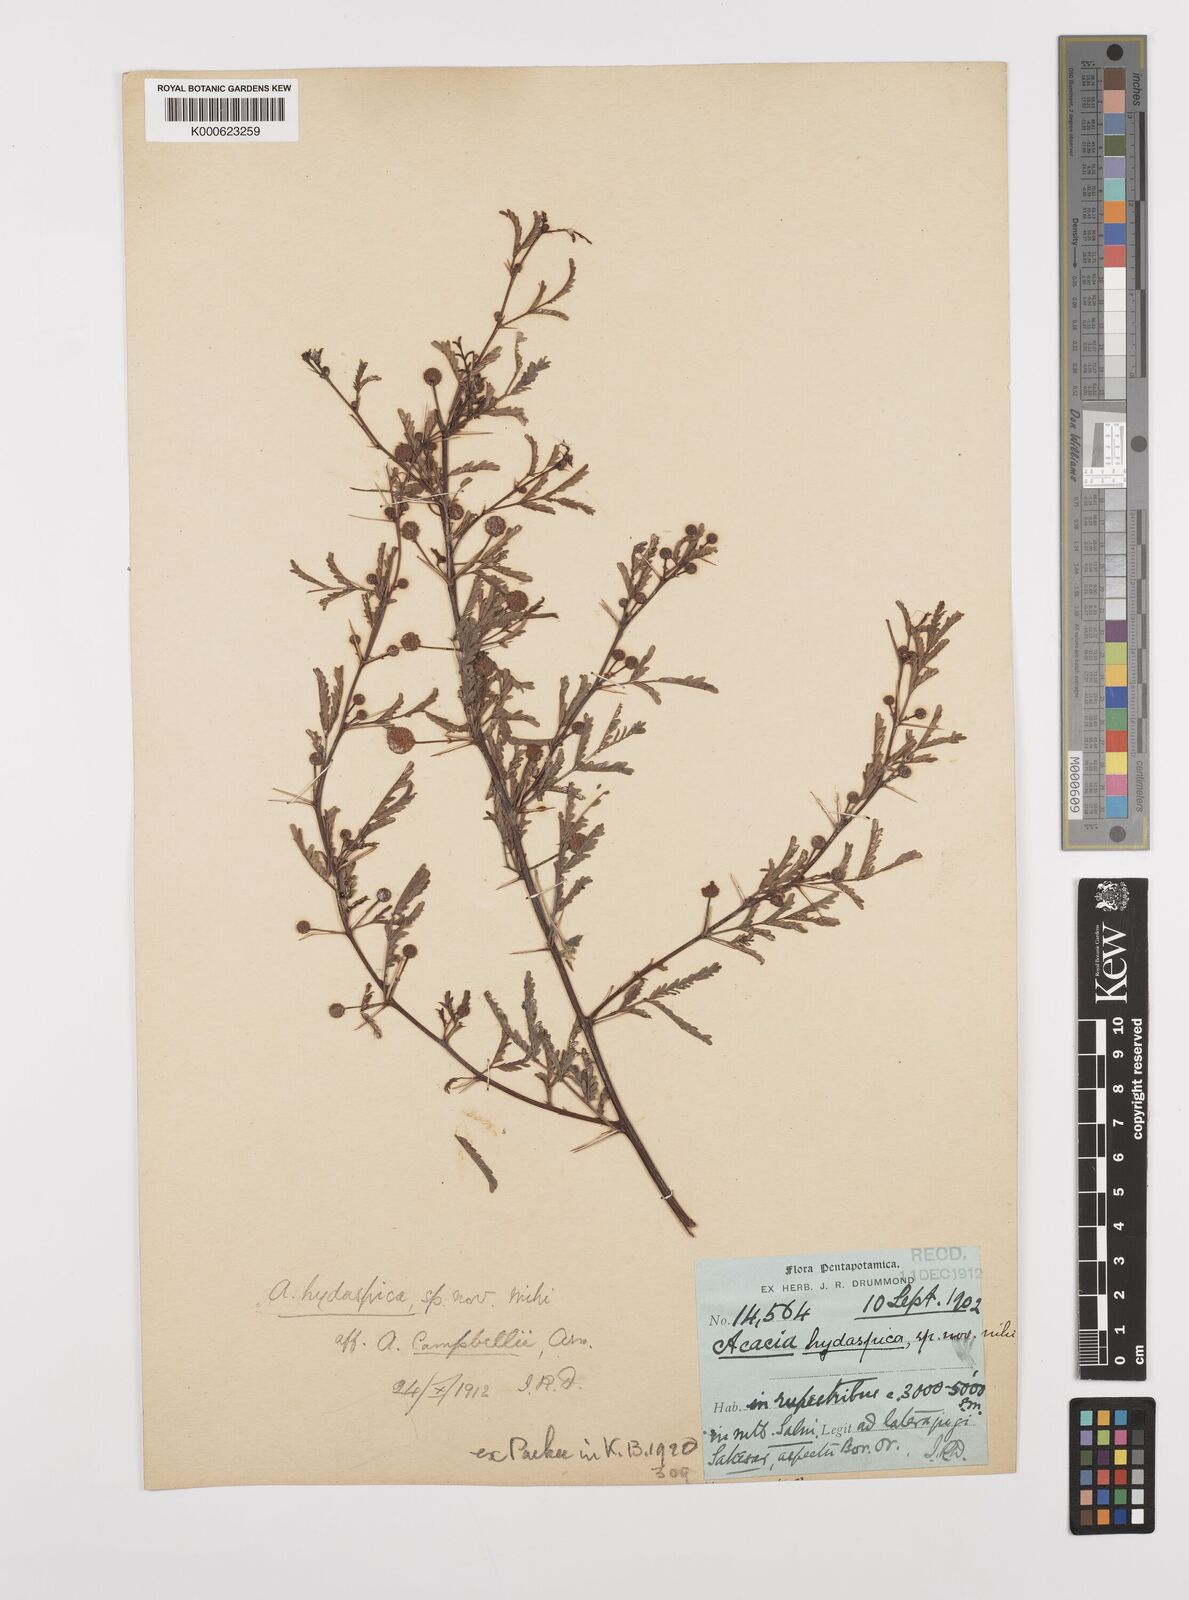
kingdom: Plantae
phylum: Tracheophyta
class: Magnoliopsida
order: Fabales
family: Fabaceae
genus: Vachellia
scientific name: Vachellia hydaspica
